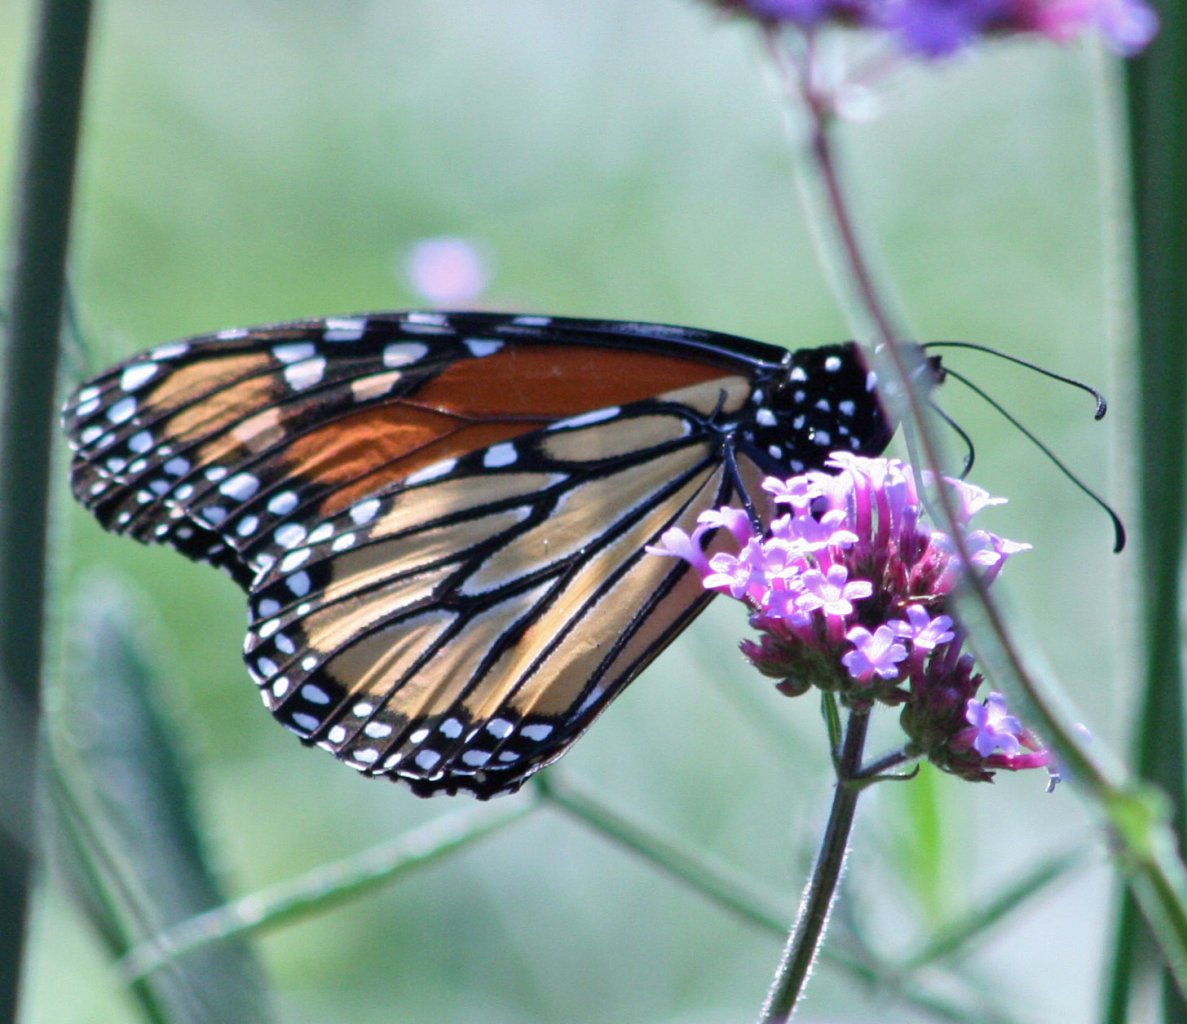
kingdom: Animalia
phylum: Arthropoda
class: Insecta
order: Lepidoptera
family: Nymphalidae
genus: Danaus
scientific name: Danaus plexippus
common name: Monarch
